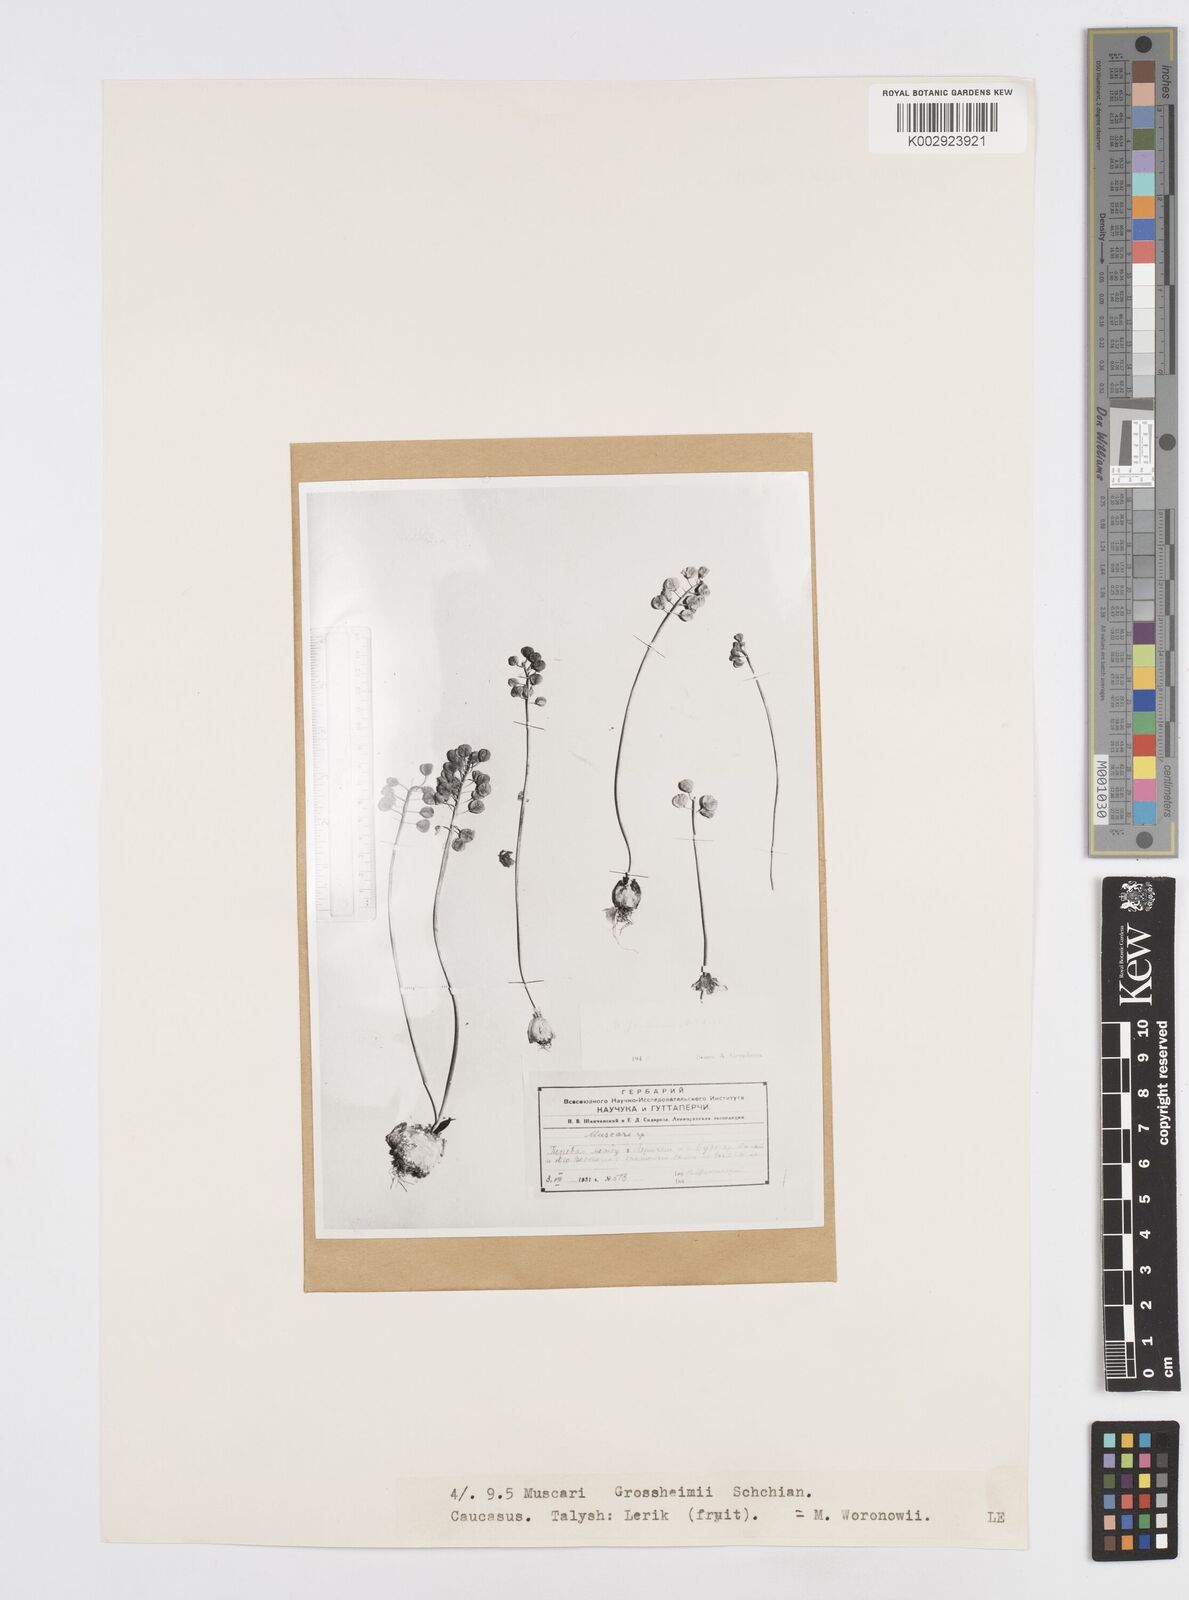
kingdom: Plantae
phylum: Tracheophyta
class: Liliopsida
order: Asparagales
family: Asparagaceae
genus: Muscari
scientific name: Muscari neglectum
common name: Grape-hyacinth
